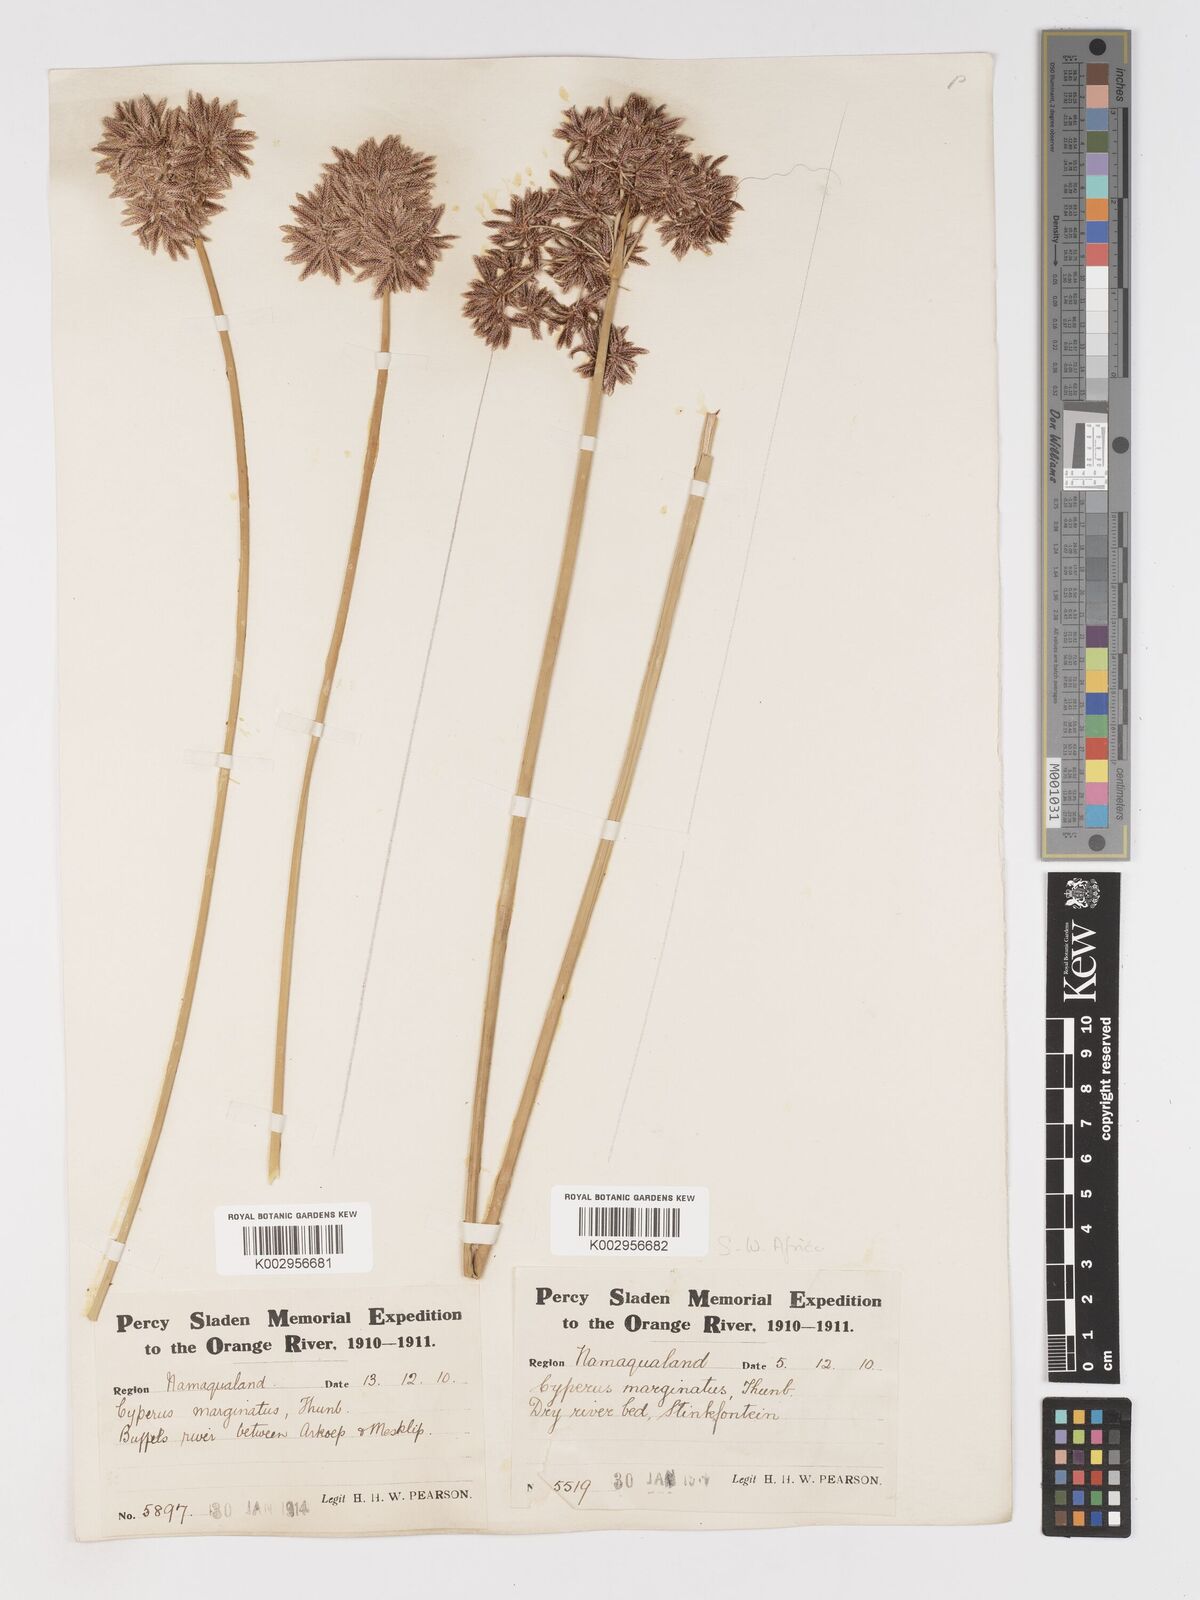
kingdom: Plantae
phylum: Tracheophyta
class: Liliopsida
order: Poales
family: Cyperaceae
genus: Cyperus
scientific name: Cyperus marginatus
